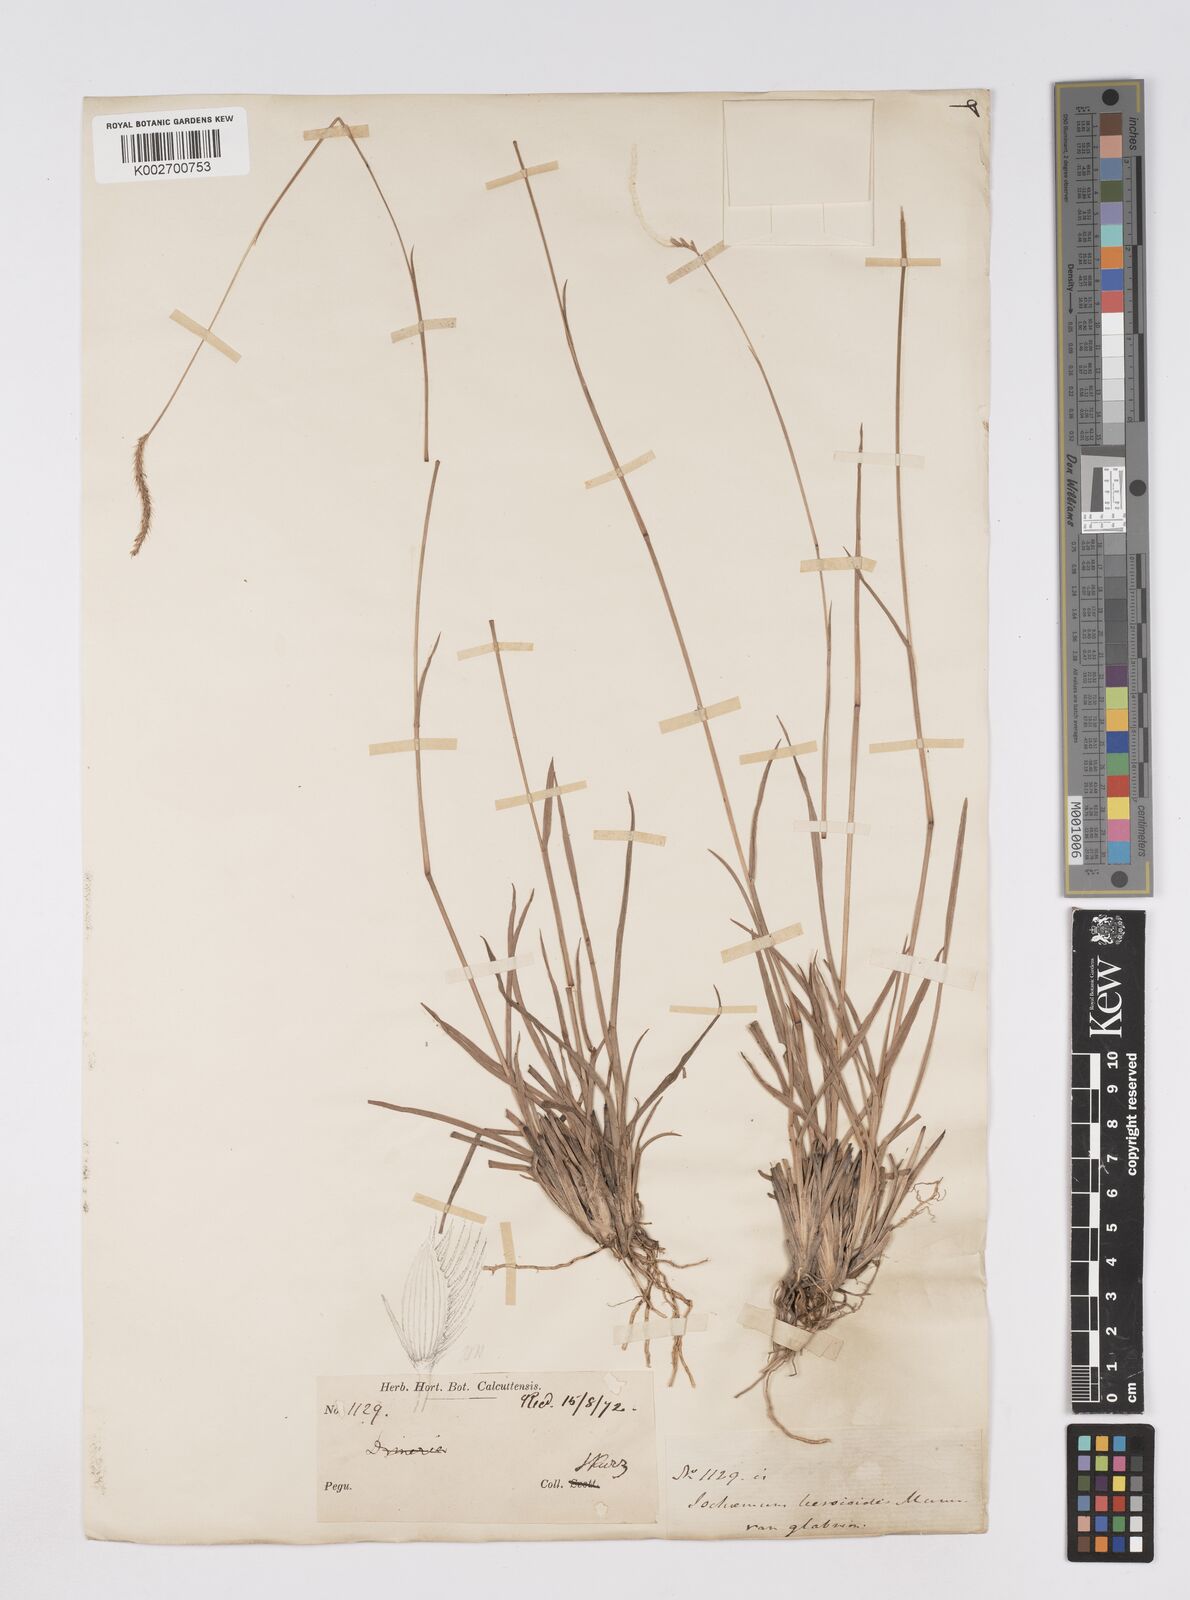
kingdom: Plantae
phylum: Tracheophyta
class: Liliopsida
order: Poales
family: Poaceae
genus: Eremochloa
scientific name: Eremochloa ciliaris
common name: Fringed centipede grass
